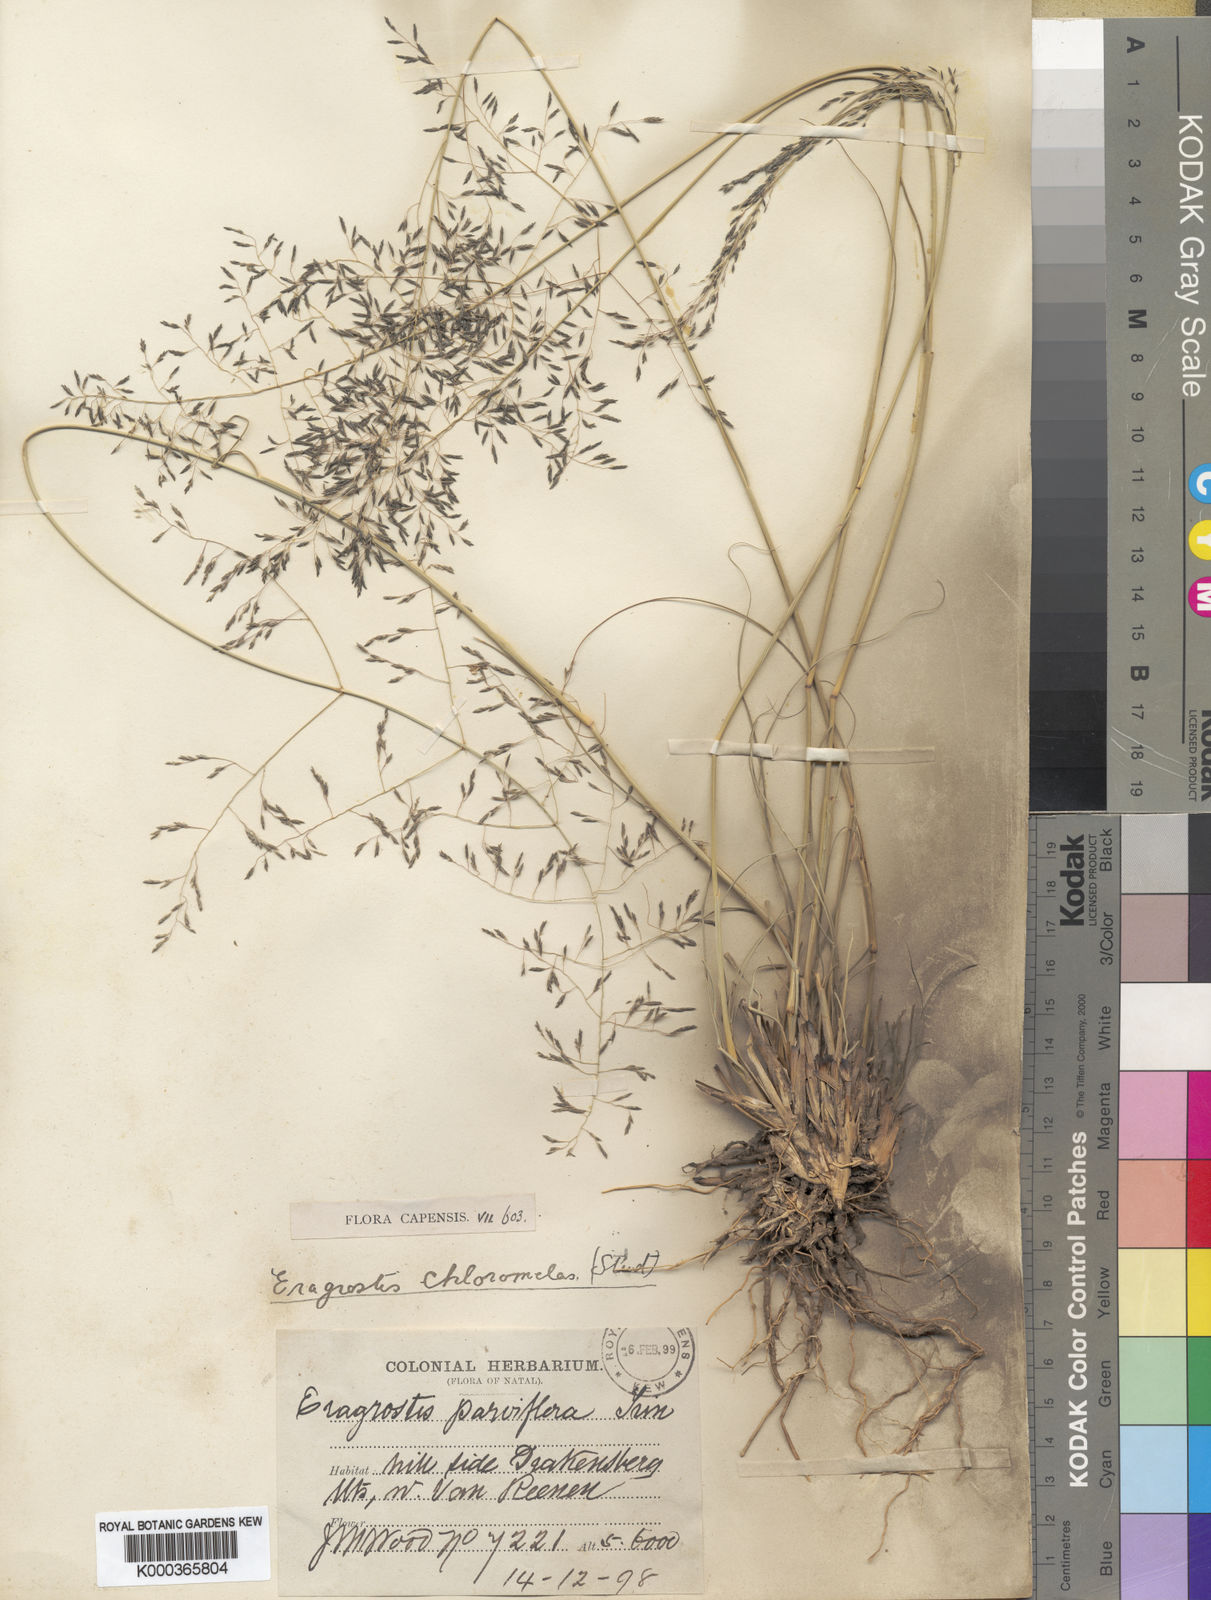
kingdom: Plantae
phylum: Tracheophyta
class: Liliopsida
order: Poales
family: Poaceae
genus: Eragrostis
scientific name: Eragrostis curvula
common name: African love-grass
